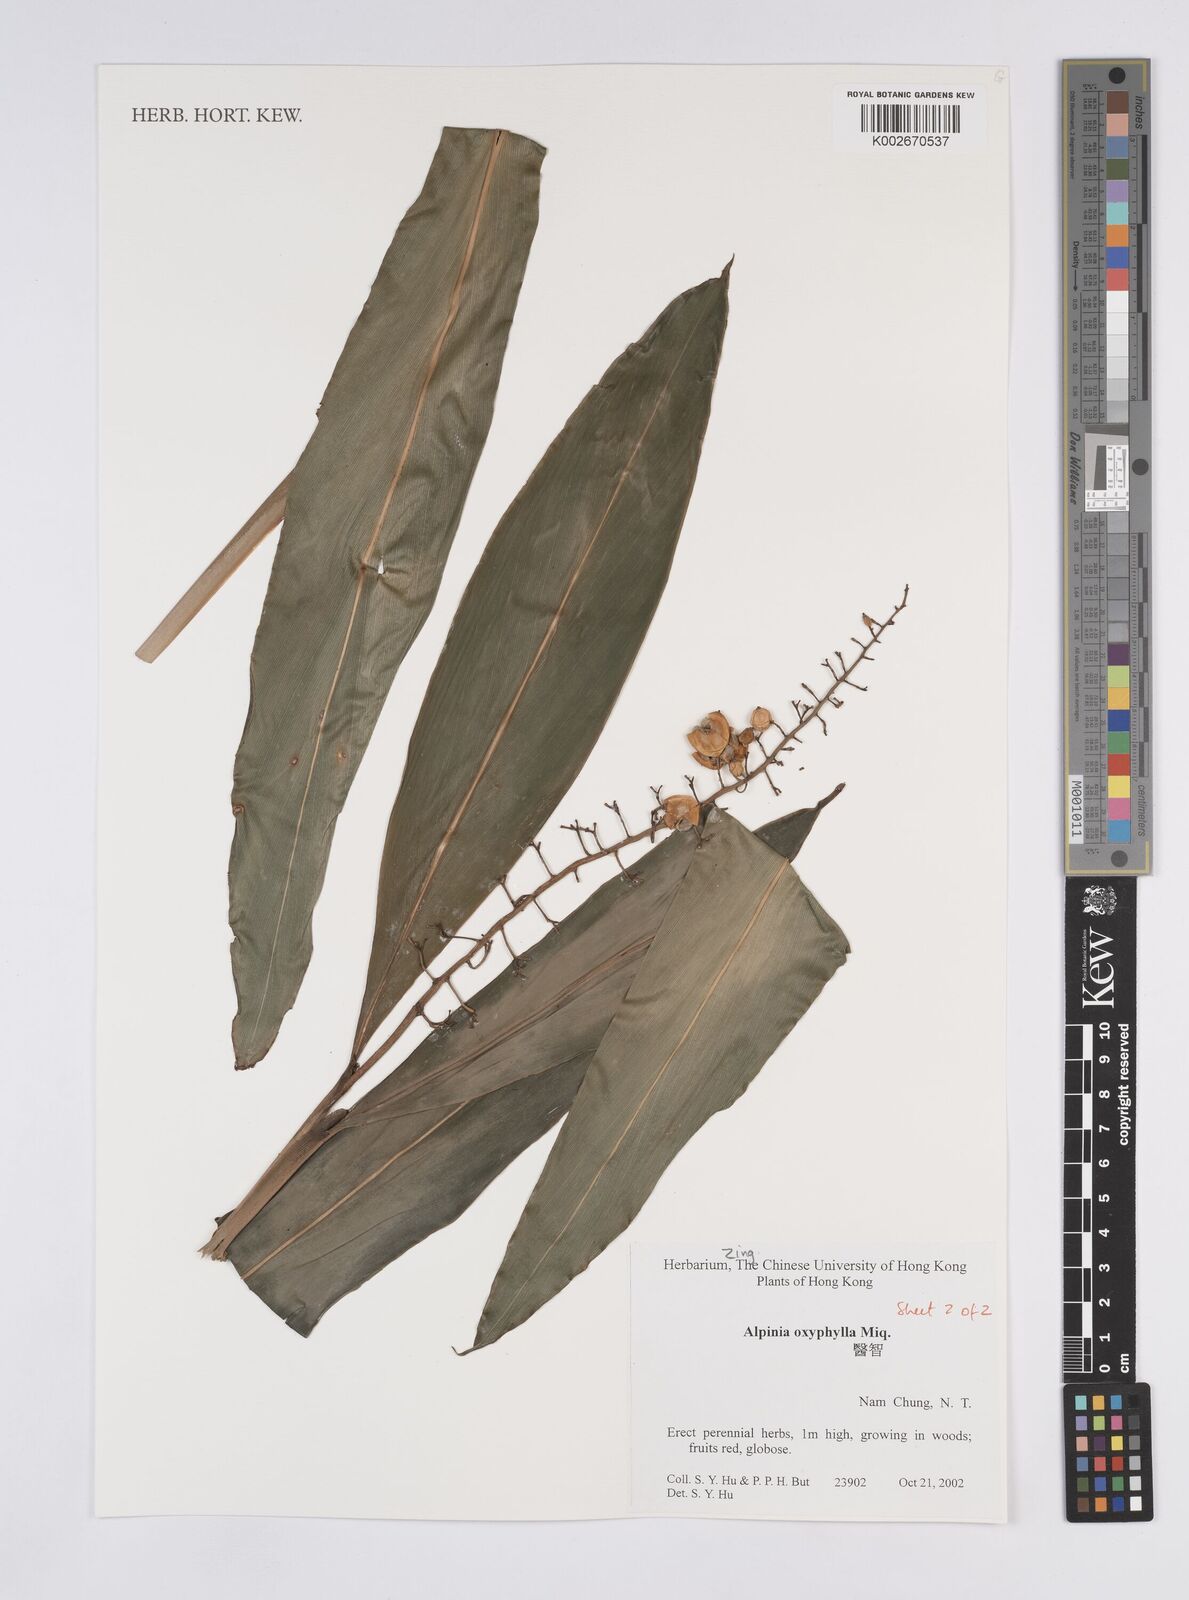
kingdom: Plantae
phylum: Tracheophyta
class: Liliopsida
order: Zingiberales
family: Zingiberaceae
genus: Alpinia
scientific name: Alpinia oxyphylla
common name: Sharp-leaf galangal
